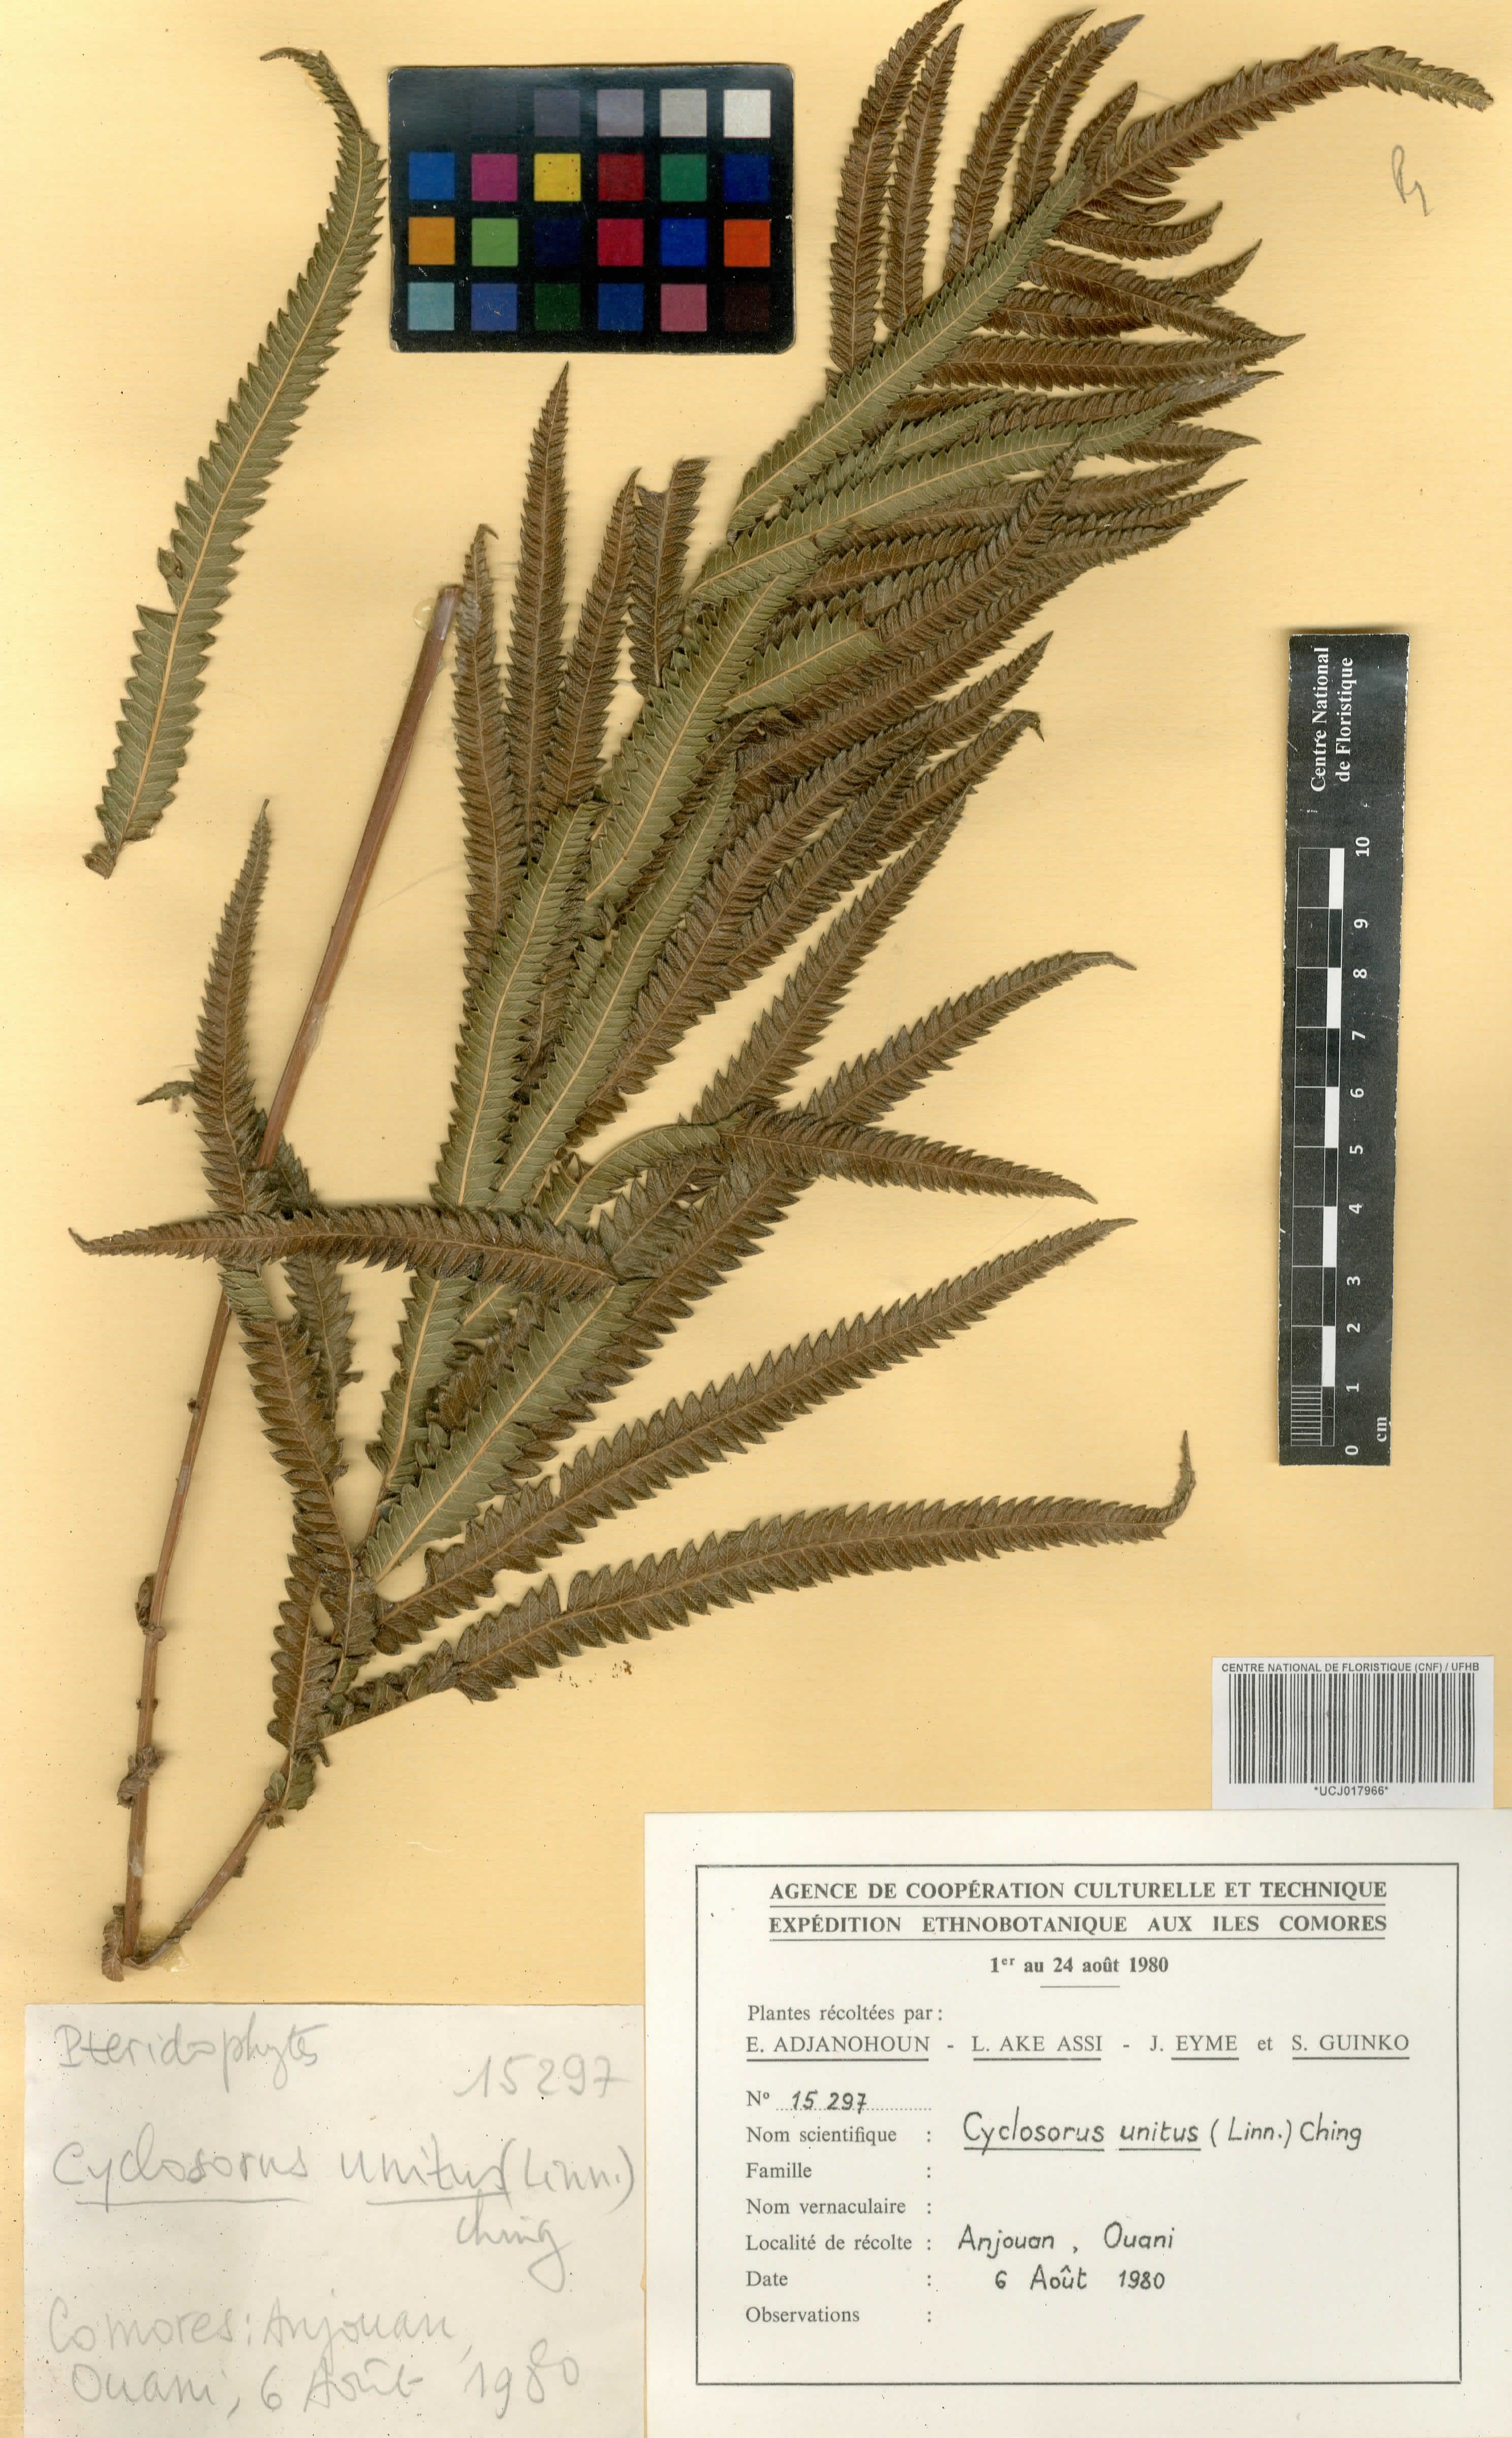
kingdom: Plantae
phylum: Tracheophyta
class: Polypodiopsida
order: Polypodiales
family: Thelypteridaceae
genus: Strophocaulon
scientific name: Strophocaulon unitum
